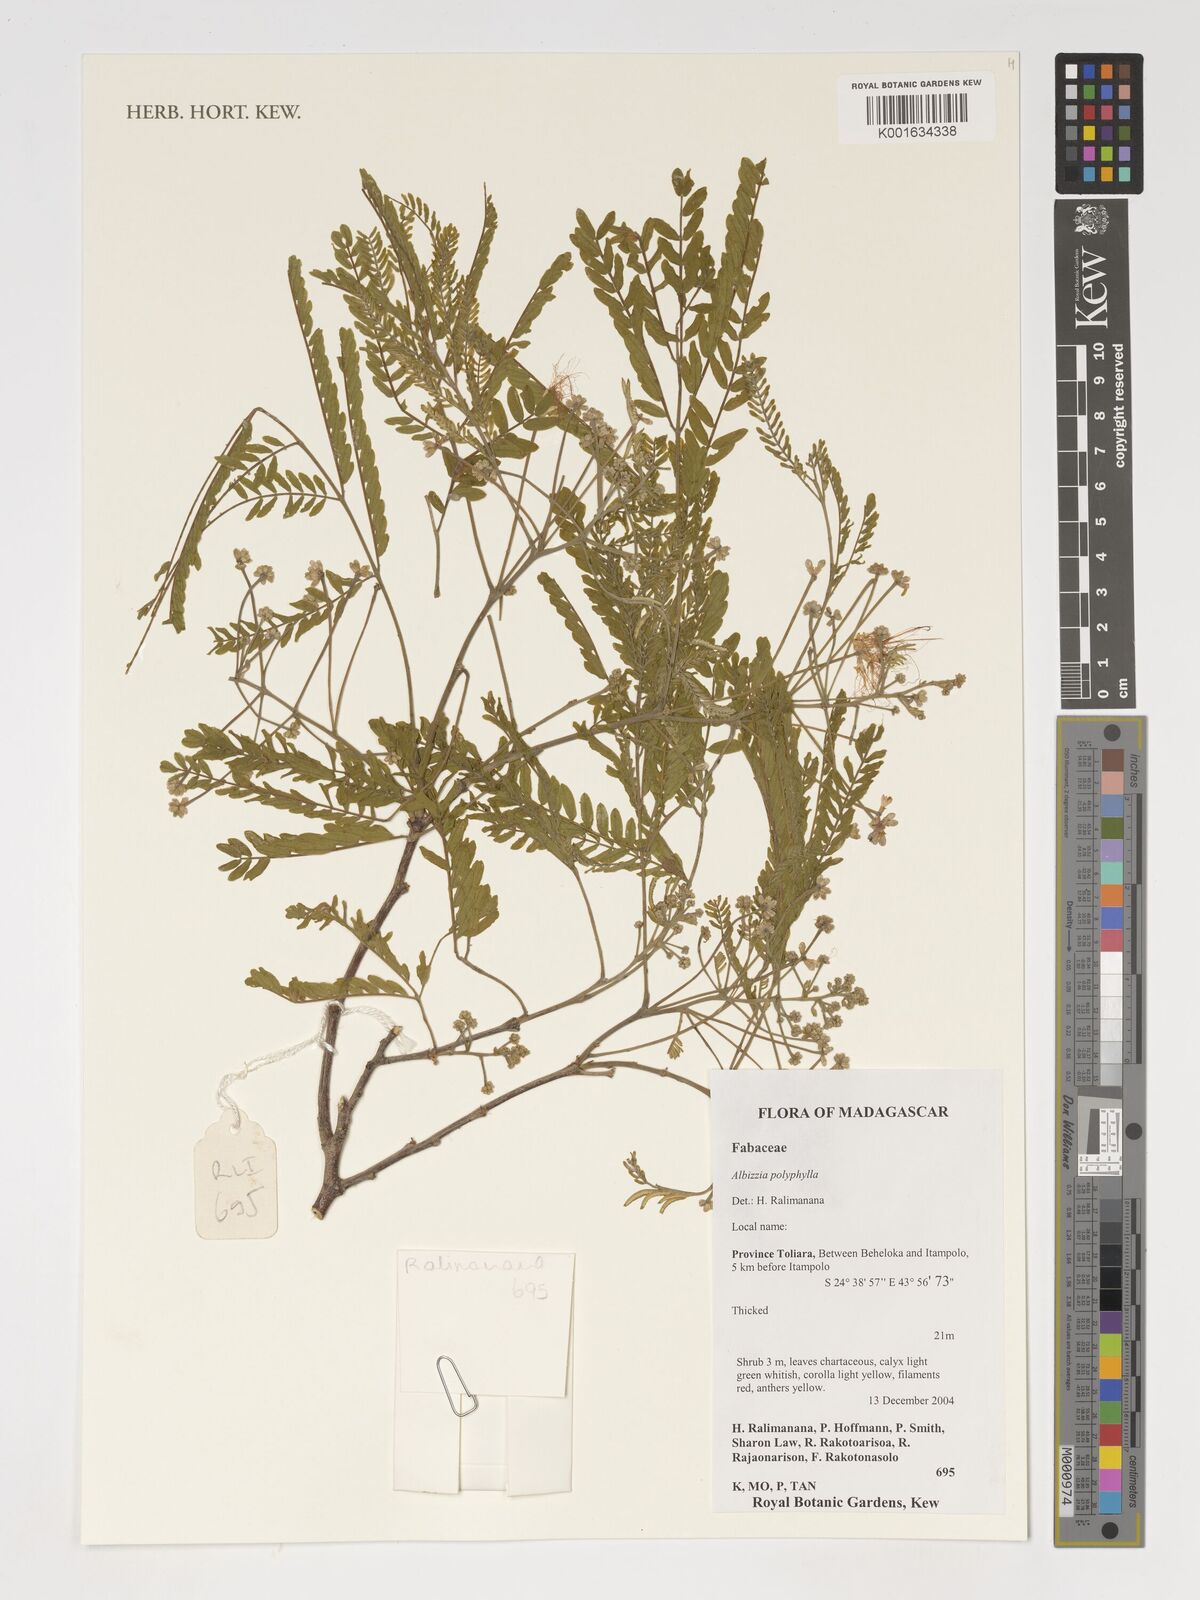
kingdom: Plantae
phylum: Tracheophyta
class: Magnoliopsida
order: Fabales
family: Fabaceae
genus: Albizia
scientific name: Albizia polyphylla
